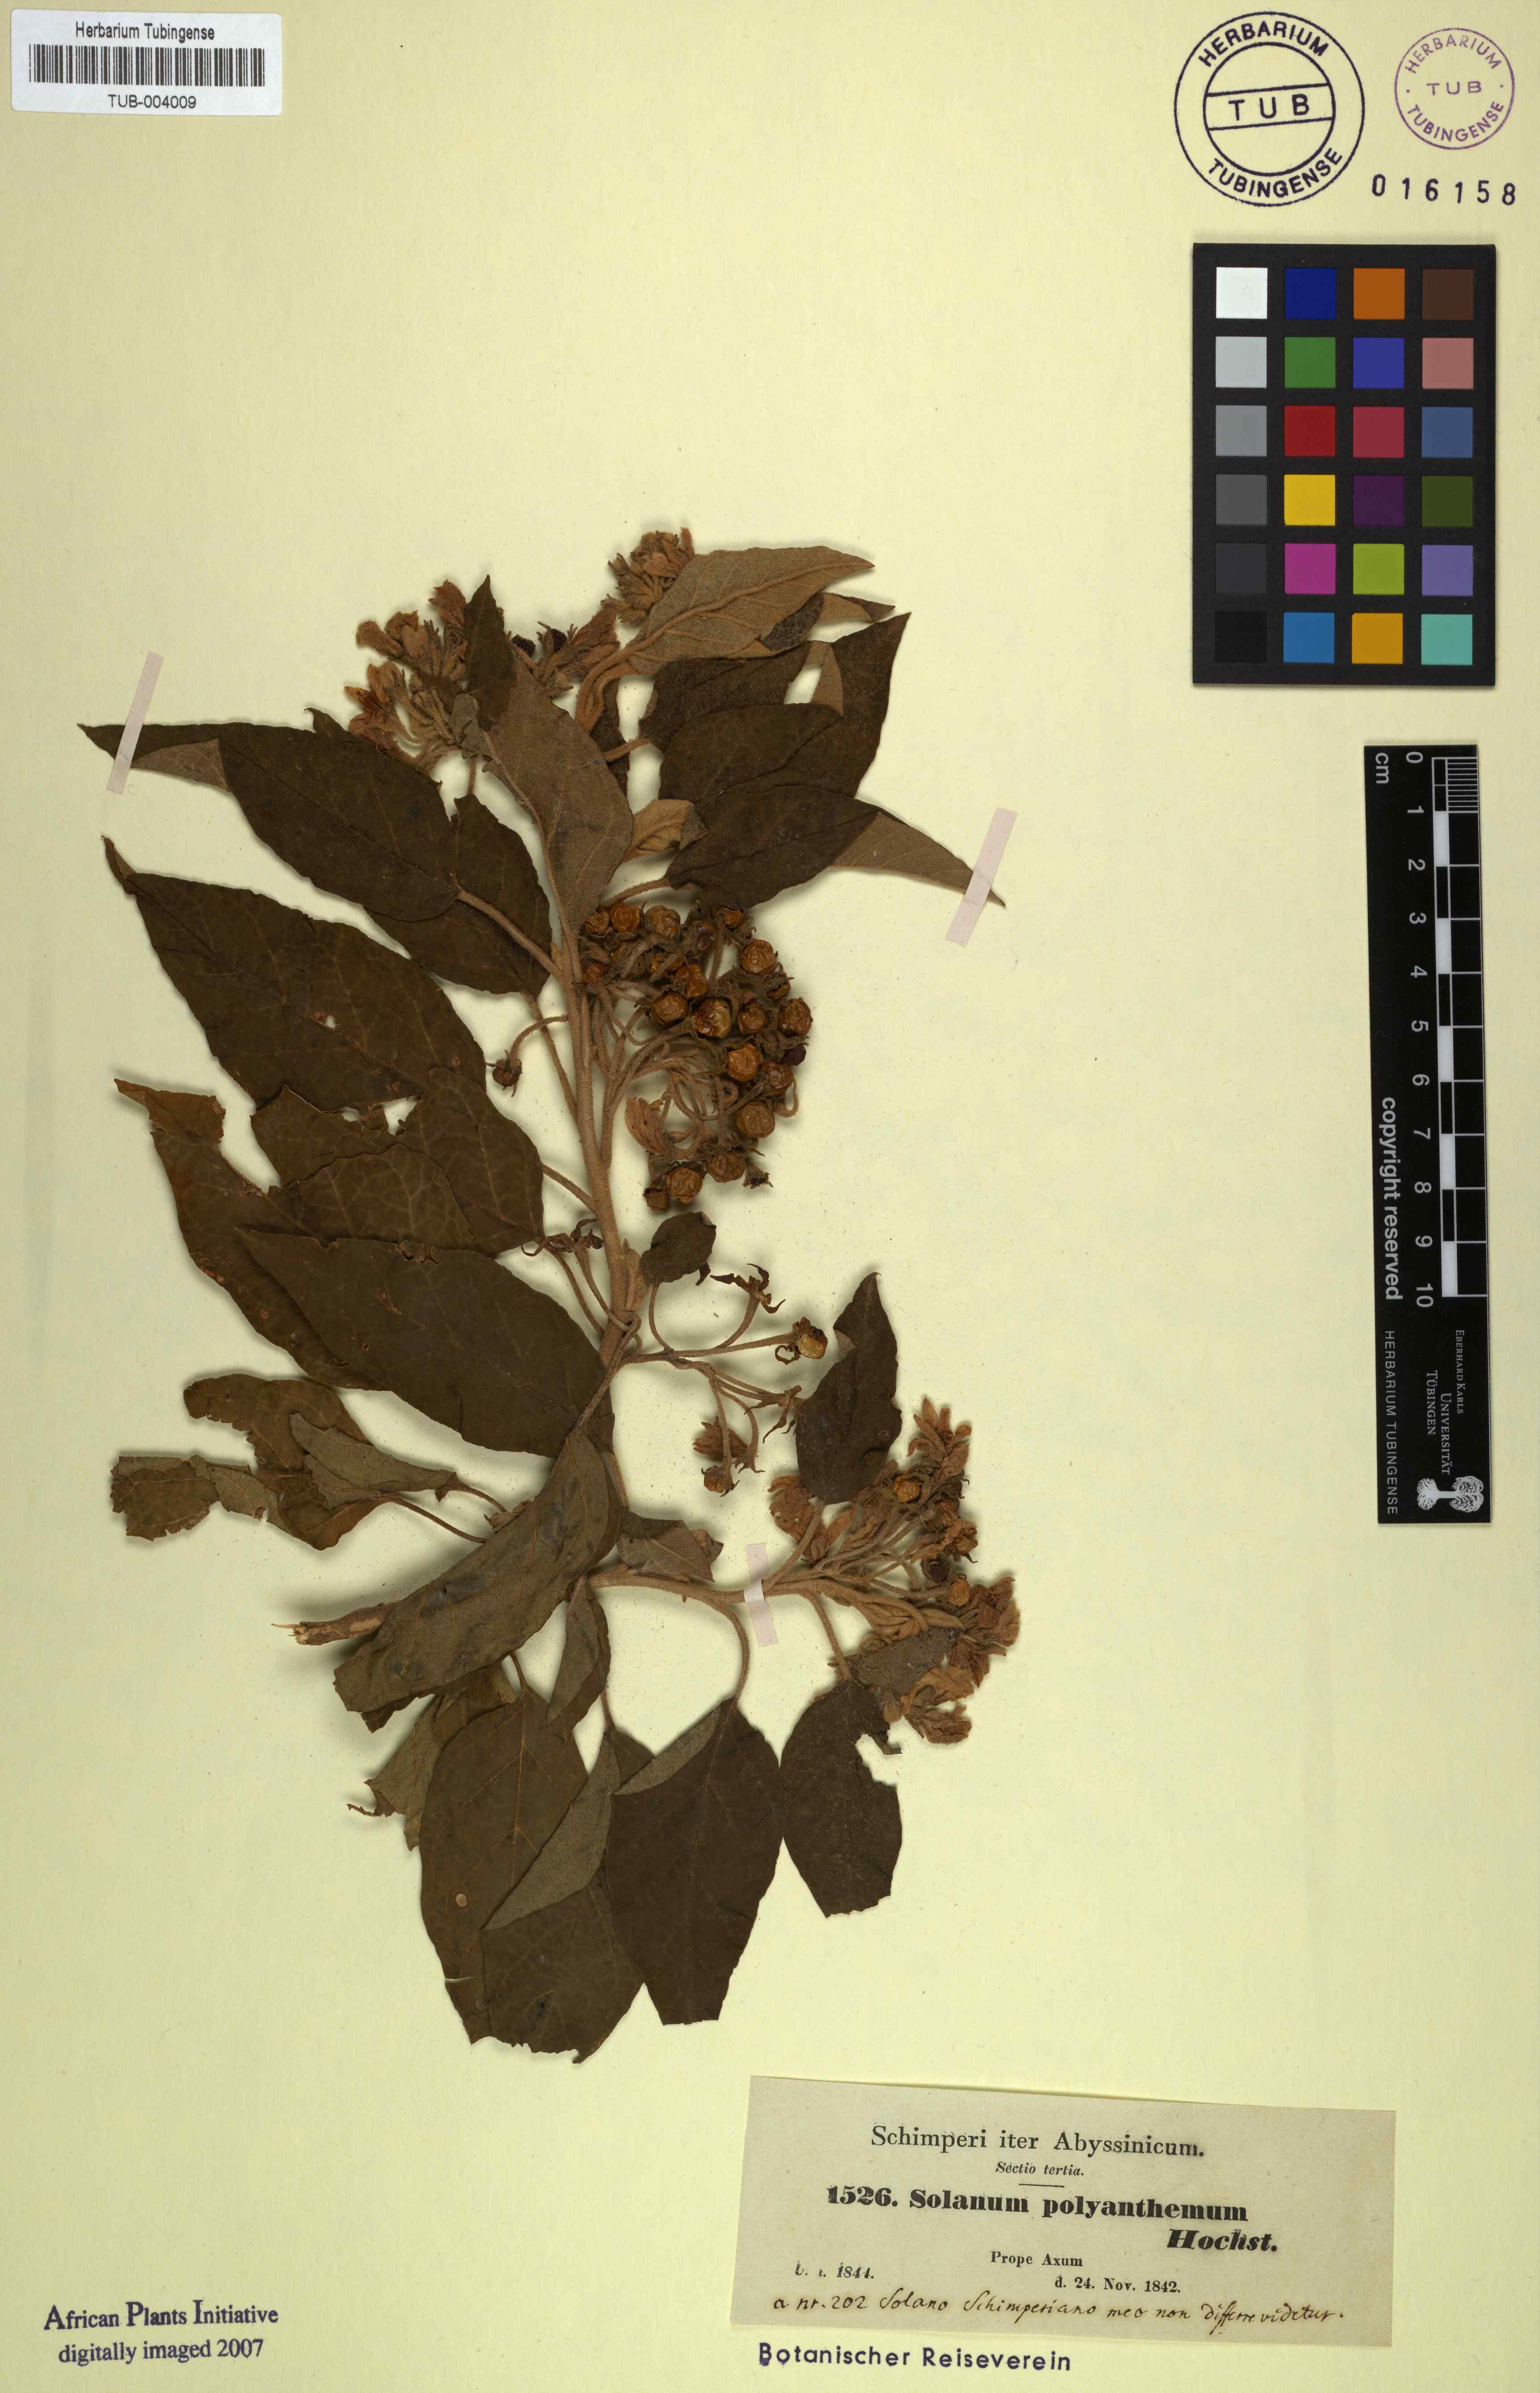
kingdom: Plantae
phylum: Tracheophyta
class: Magnoliopsida
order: Solanales
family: Solanaceae
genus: Solanum
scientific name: Solanum schimperianum
